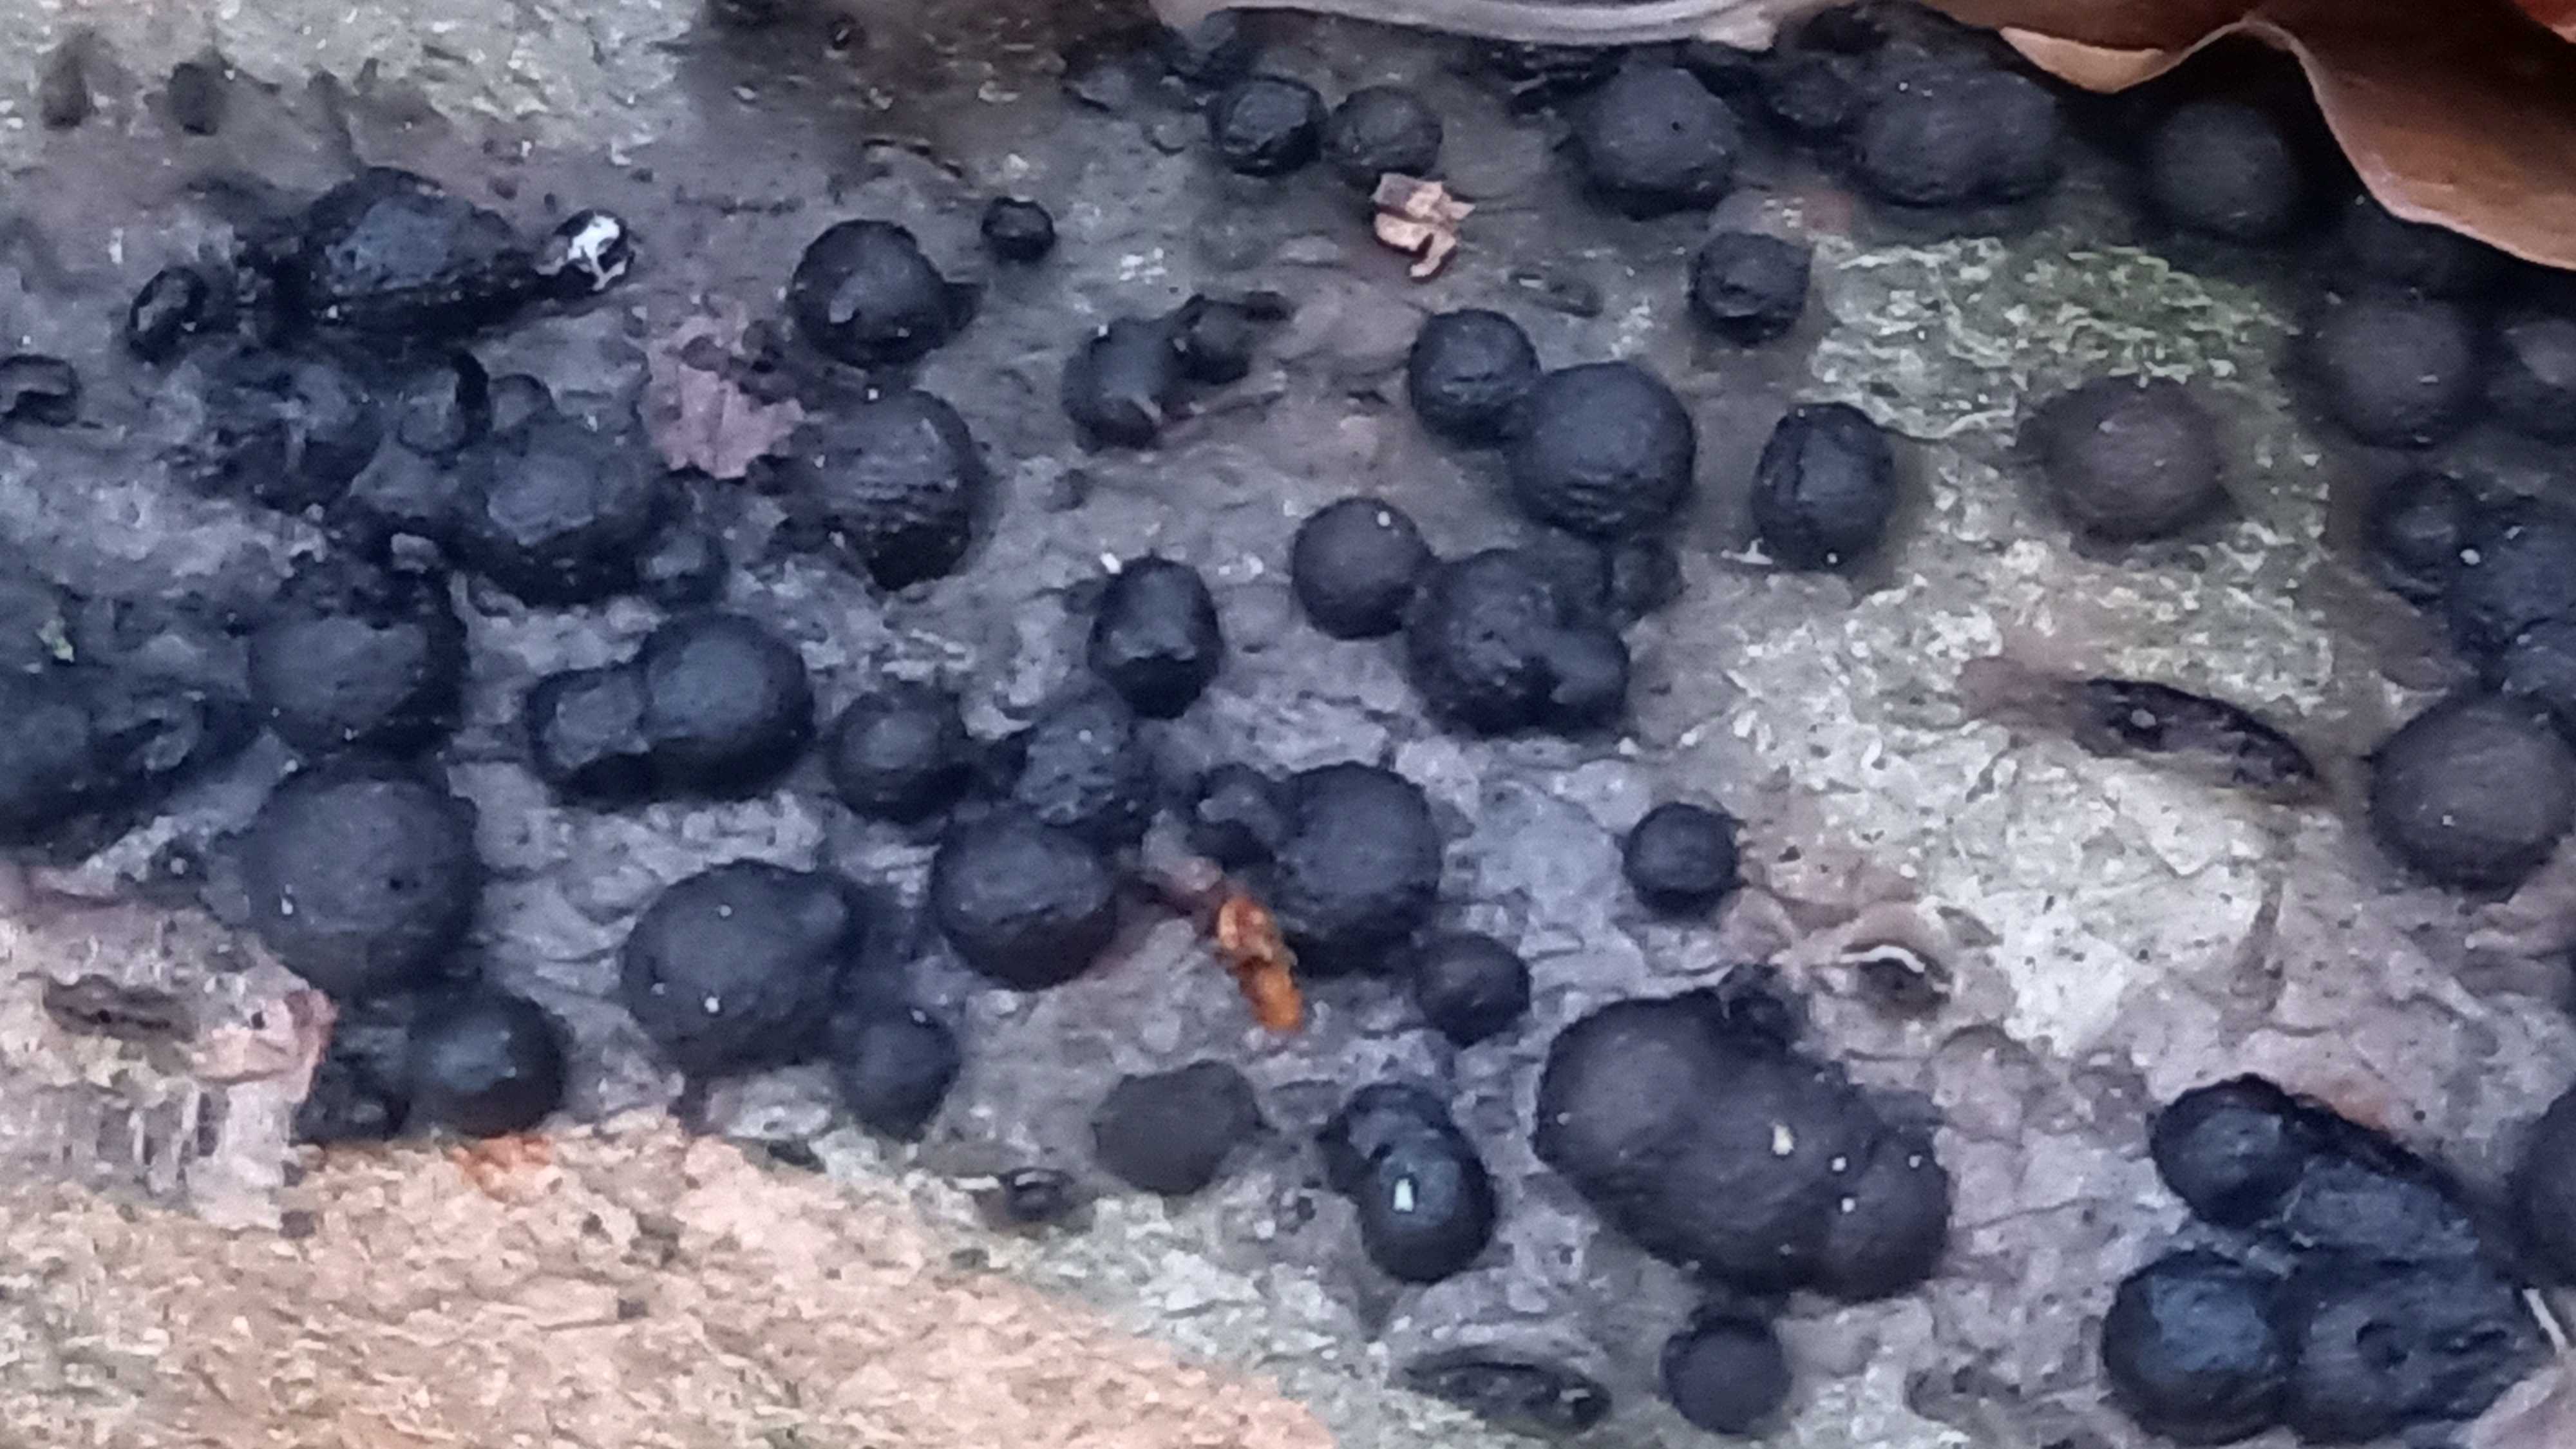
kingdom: Fungi
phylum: Ascomycota
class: Sordariomycetes
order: Xylariales
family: Hypoxylaceae
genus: Hypoxylon
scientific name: Hypoxylon fragiforme
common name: kuljordbær
